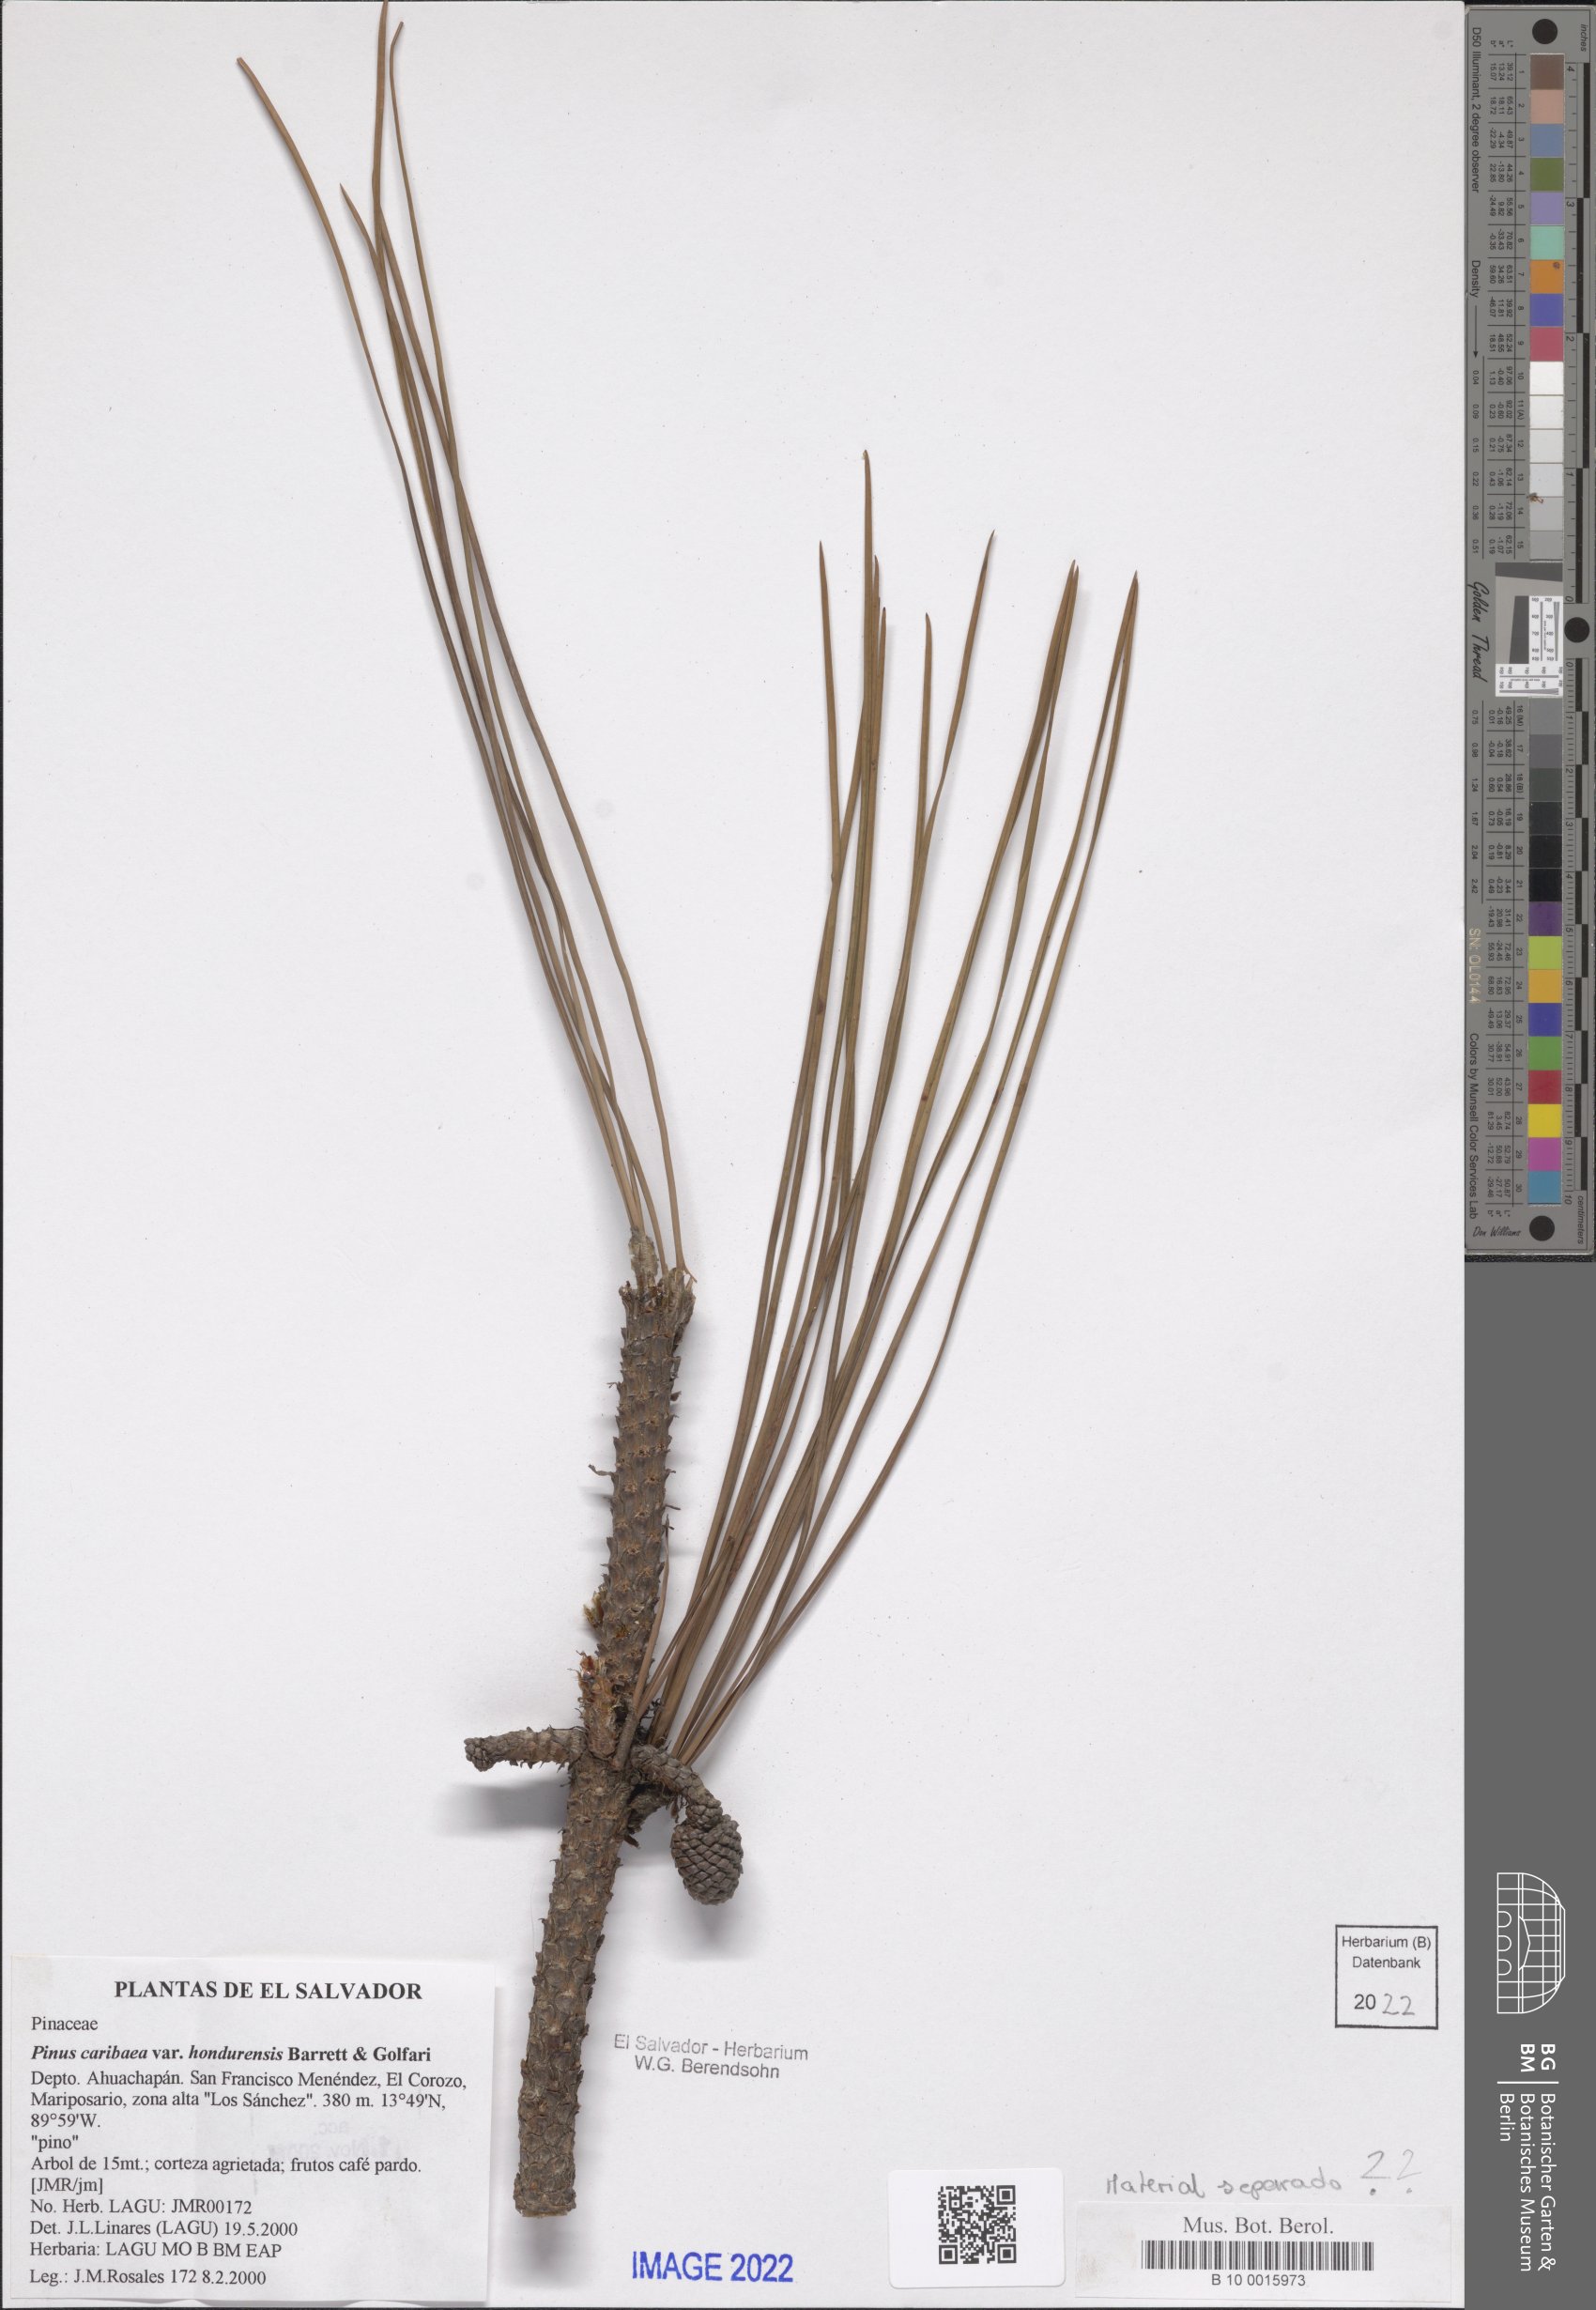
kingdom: Plantae
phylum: Tracheophyta
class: Pinopsida
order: Pinales
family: Pinaceae
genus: Pinus
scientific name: Pinus caribaea
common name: Caribbean pine
